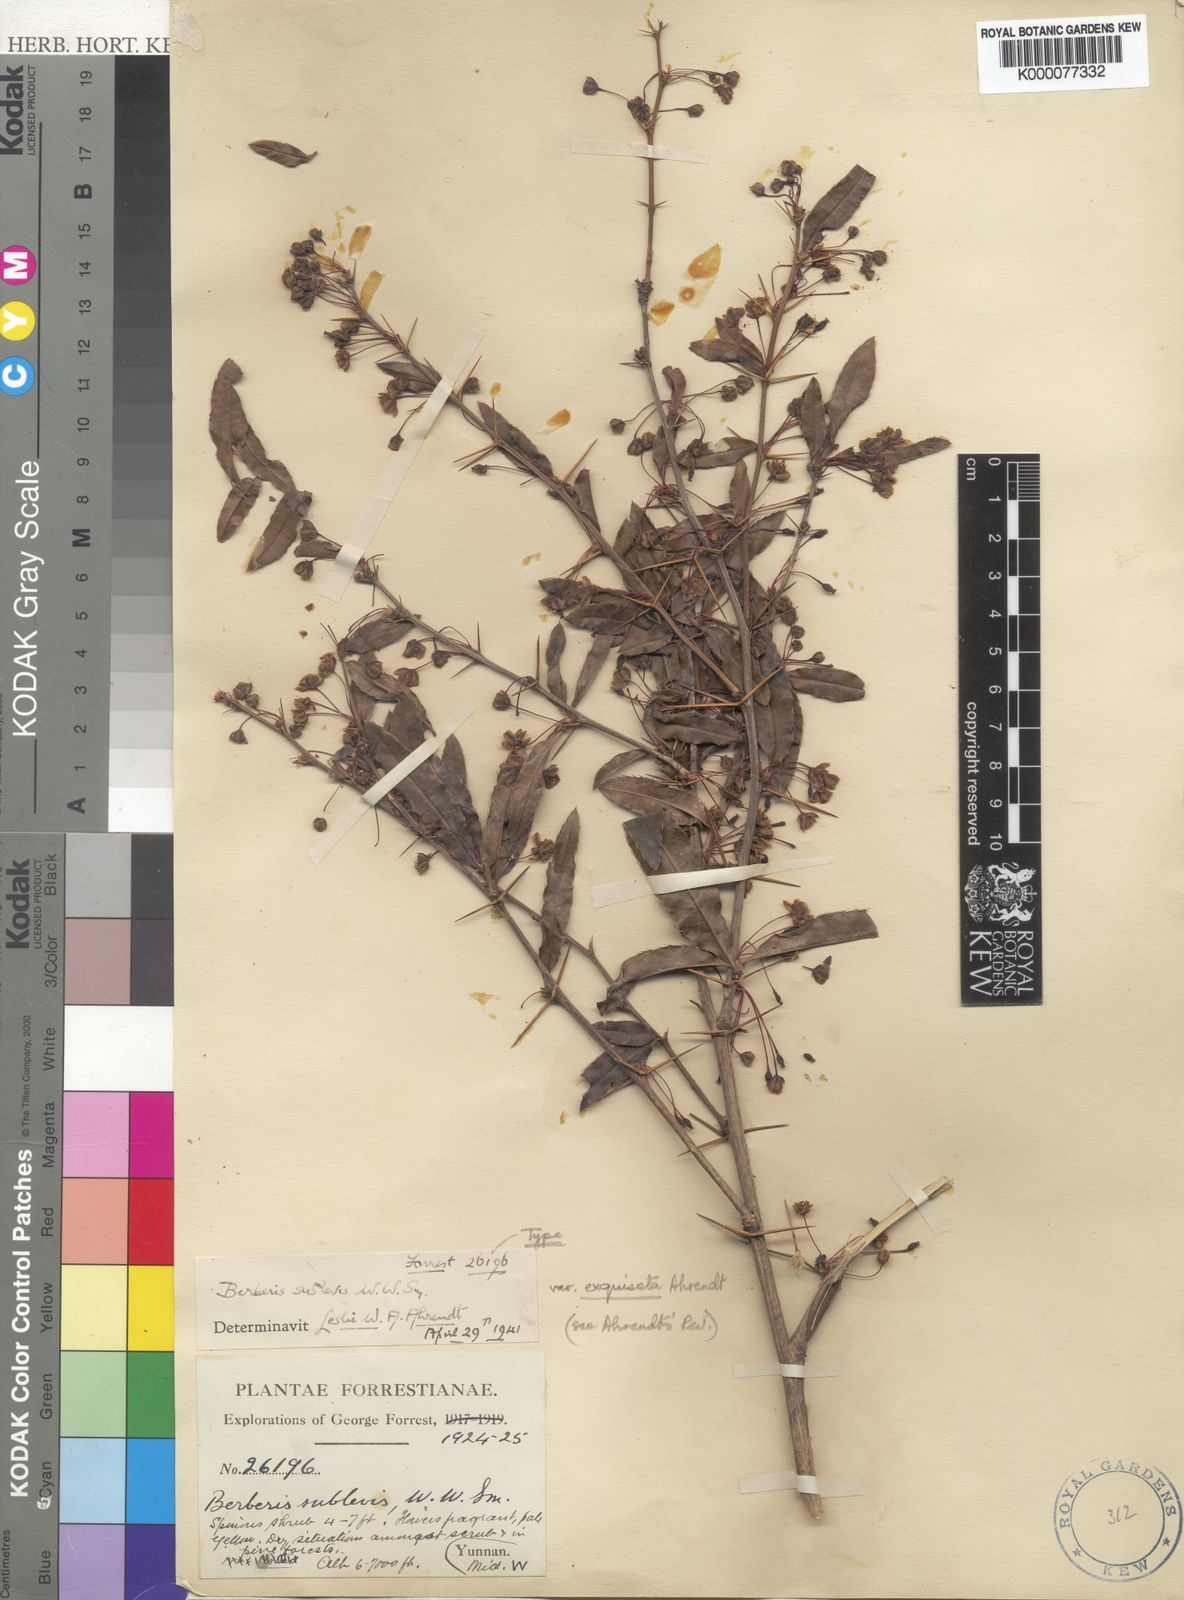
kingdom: Plantae
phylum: Tracheophyta
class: Magnoliopsida
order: Ranunculales
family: Berberidaceae
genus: Berberis
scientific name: Berberis sublevis
